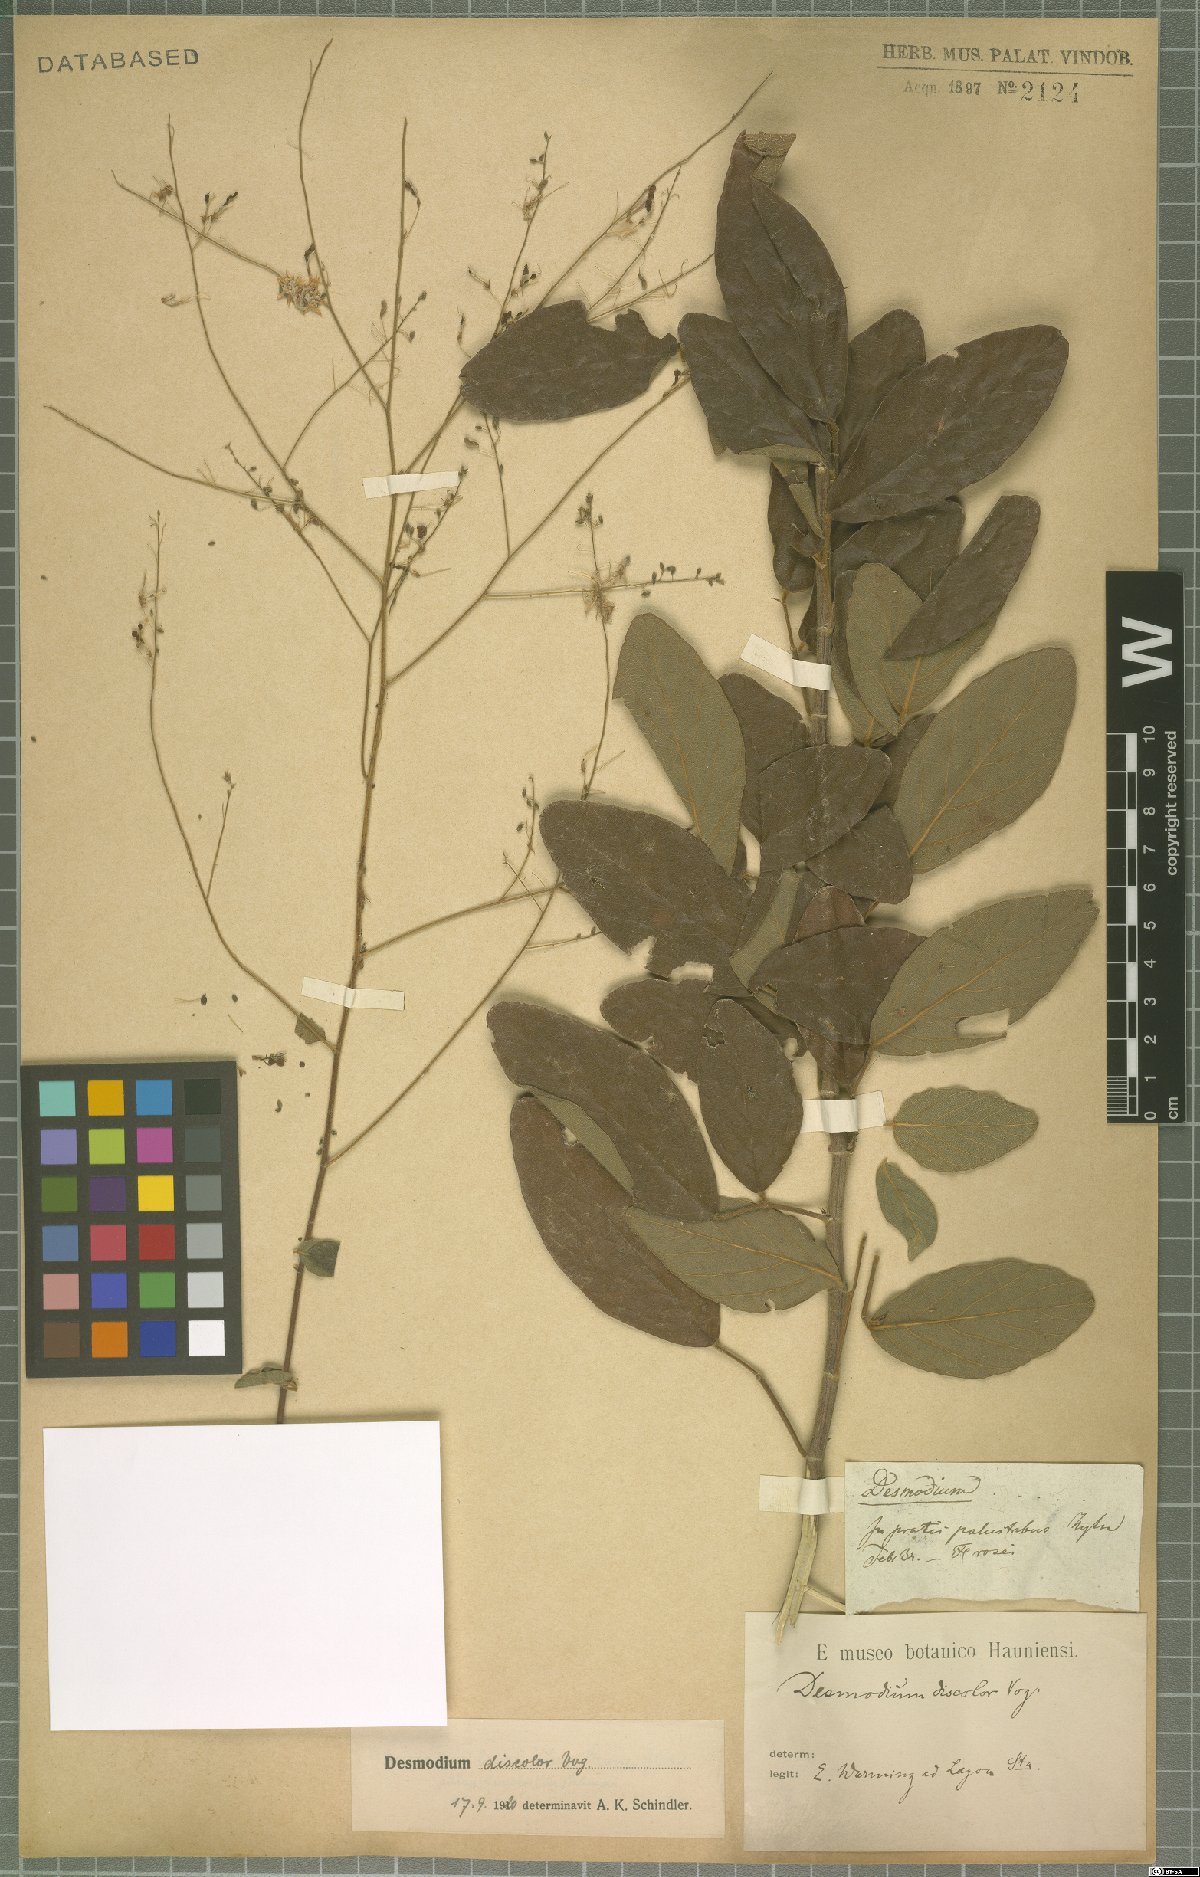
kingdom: Plantae
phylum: Tracheophyta
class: Magnoliopsida
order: Fabales
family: Fabaceae
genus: Desmodium
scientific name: Desmodium subsecundum
